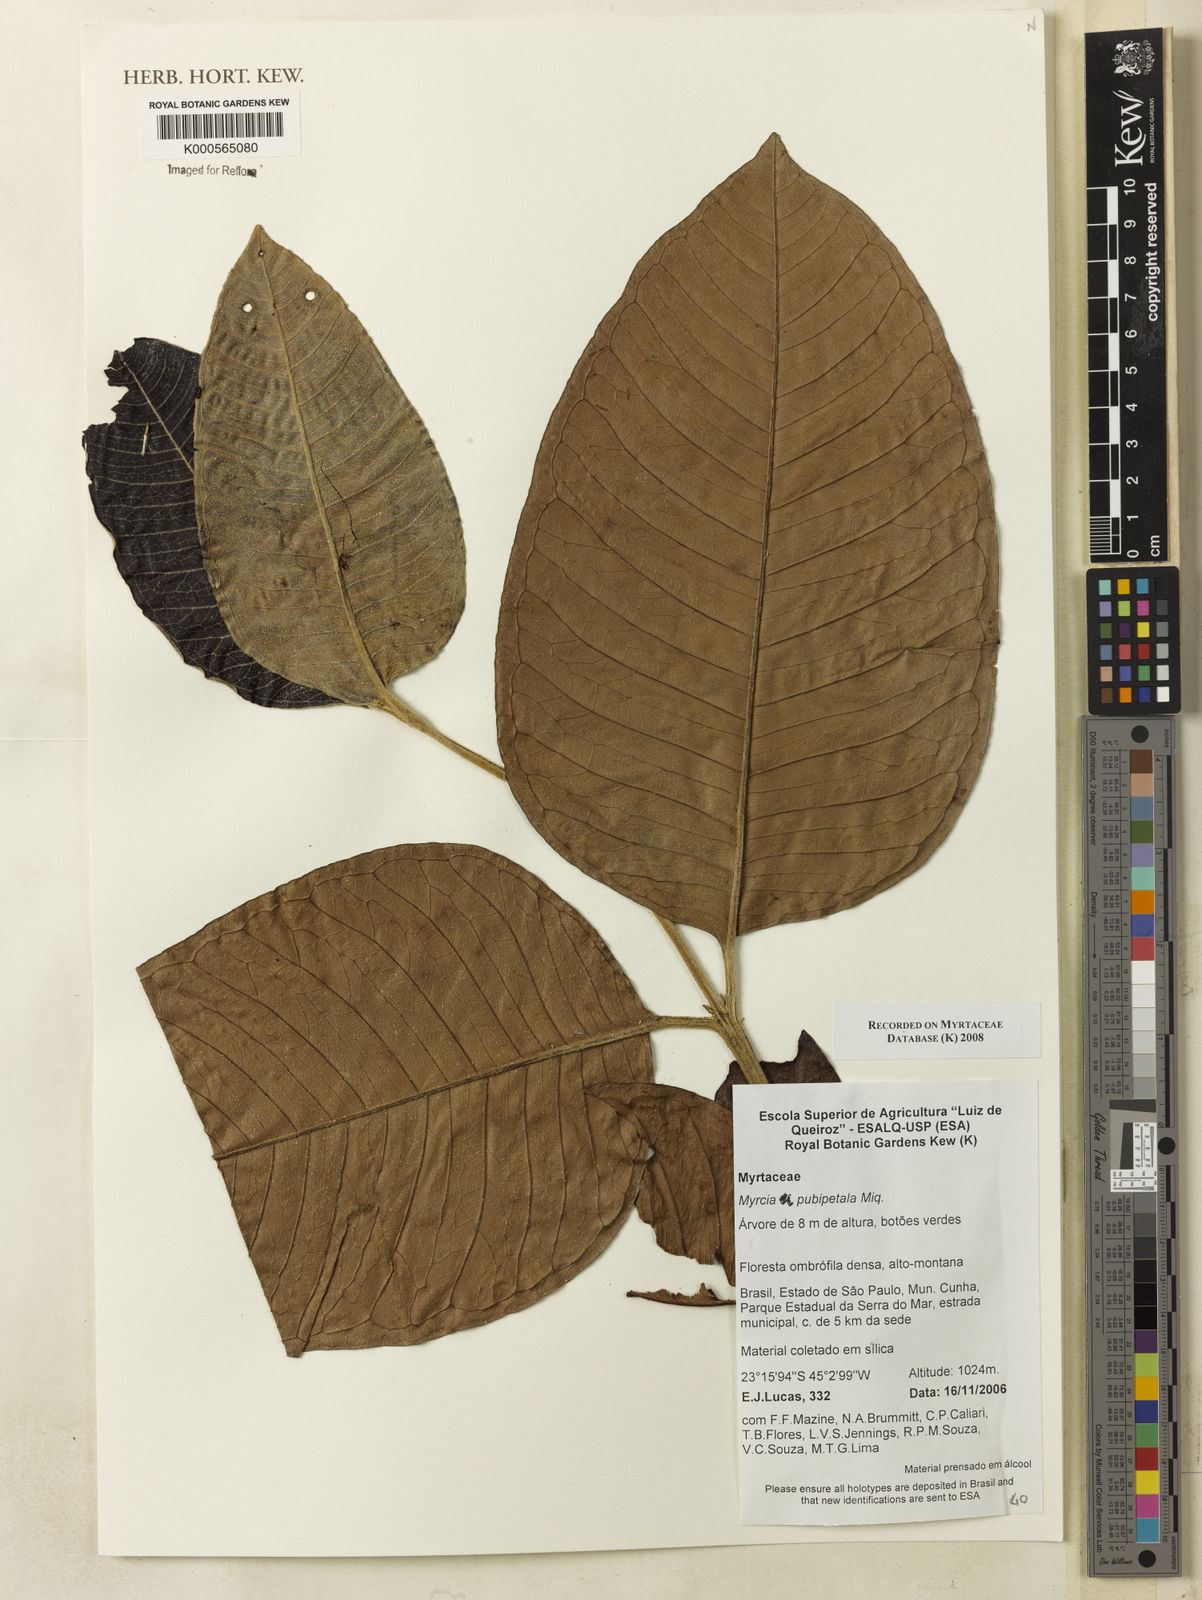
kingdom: Plantae
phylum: Tracheophyta
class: Magnoliopsida
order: Myrtales
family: Myrtaceae
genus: Myrcia
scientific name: Myrcia pubipetala
